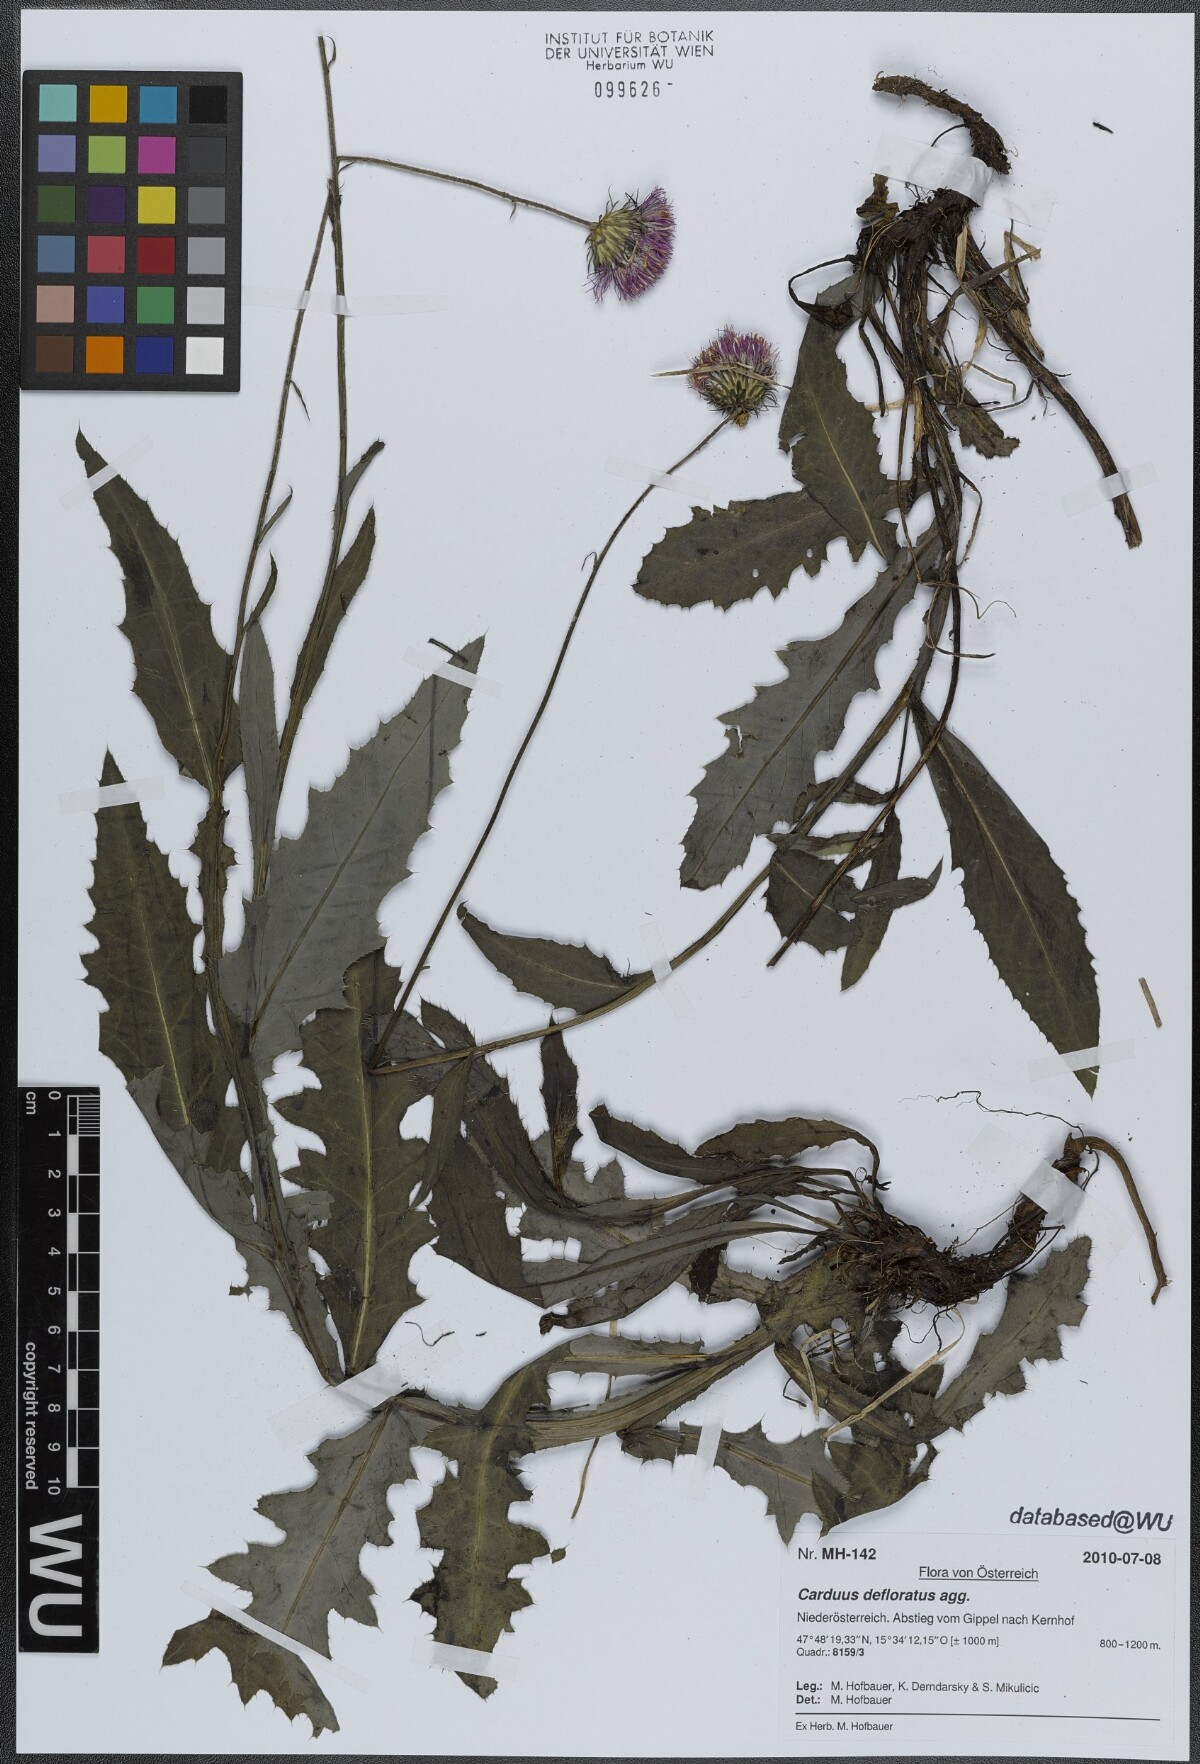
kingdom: Plantae
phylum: Tracheophyta
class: Magnoliopsida
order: Asterales
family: Asteraceae
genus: Carduus
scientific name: Carduus defloratus
